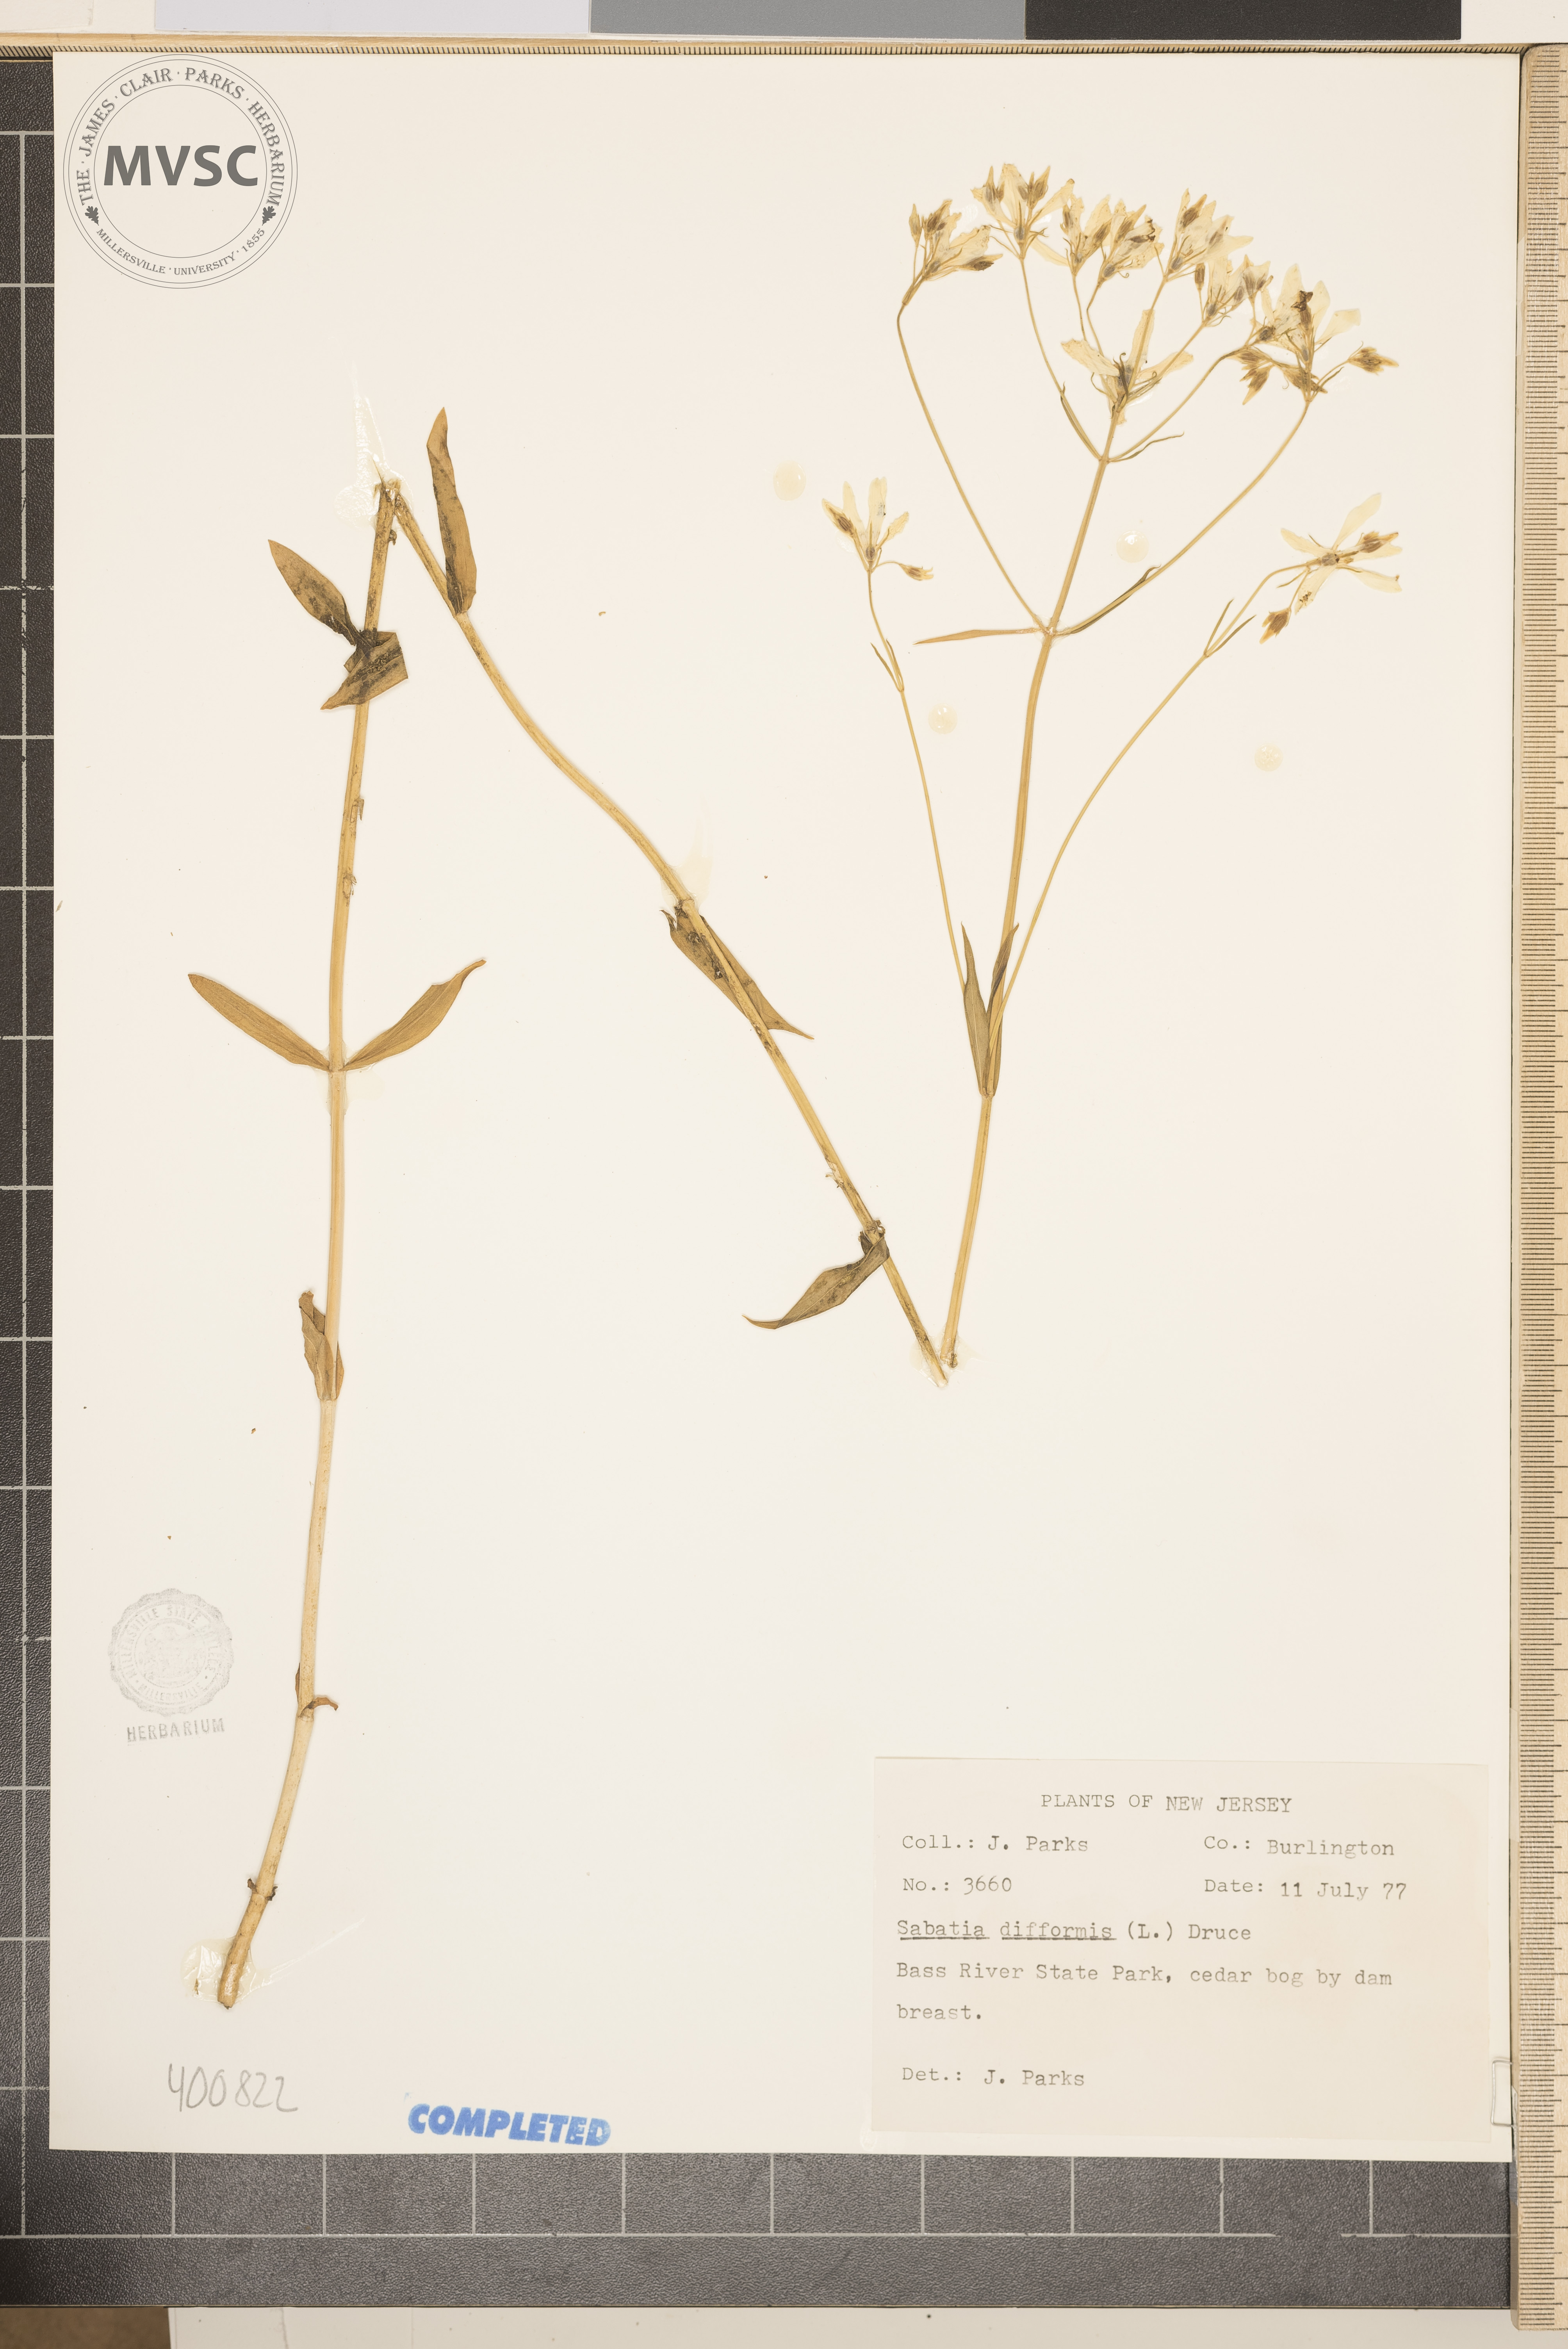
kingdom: Plantae
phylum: Tracheophyta
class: Magnoliopsida
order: Gentianales
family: Gentianaceae
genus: Sabatia
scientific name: Sabatia difformis
